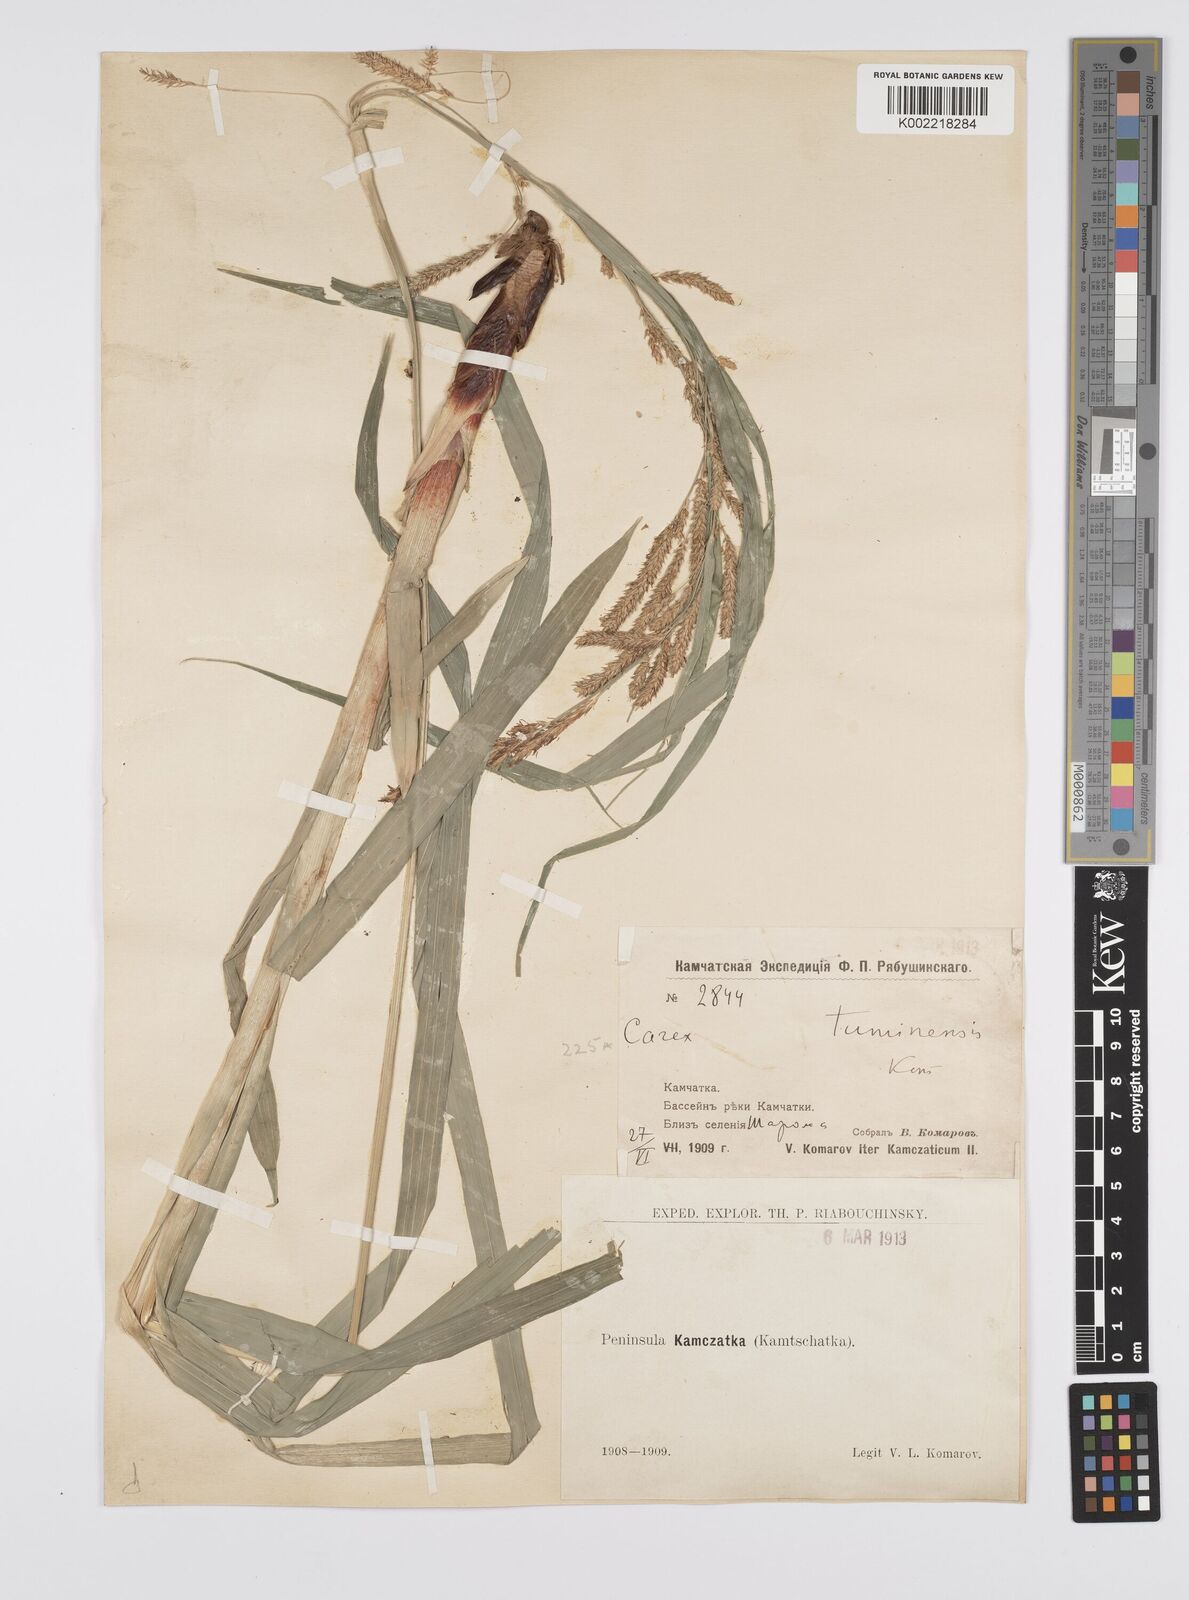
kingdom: Plantae
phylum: Tracheophyta
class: Liliopsida
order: Poales
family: Cyperaceae
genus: Carex
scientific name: Carex tuminensis
